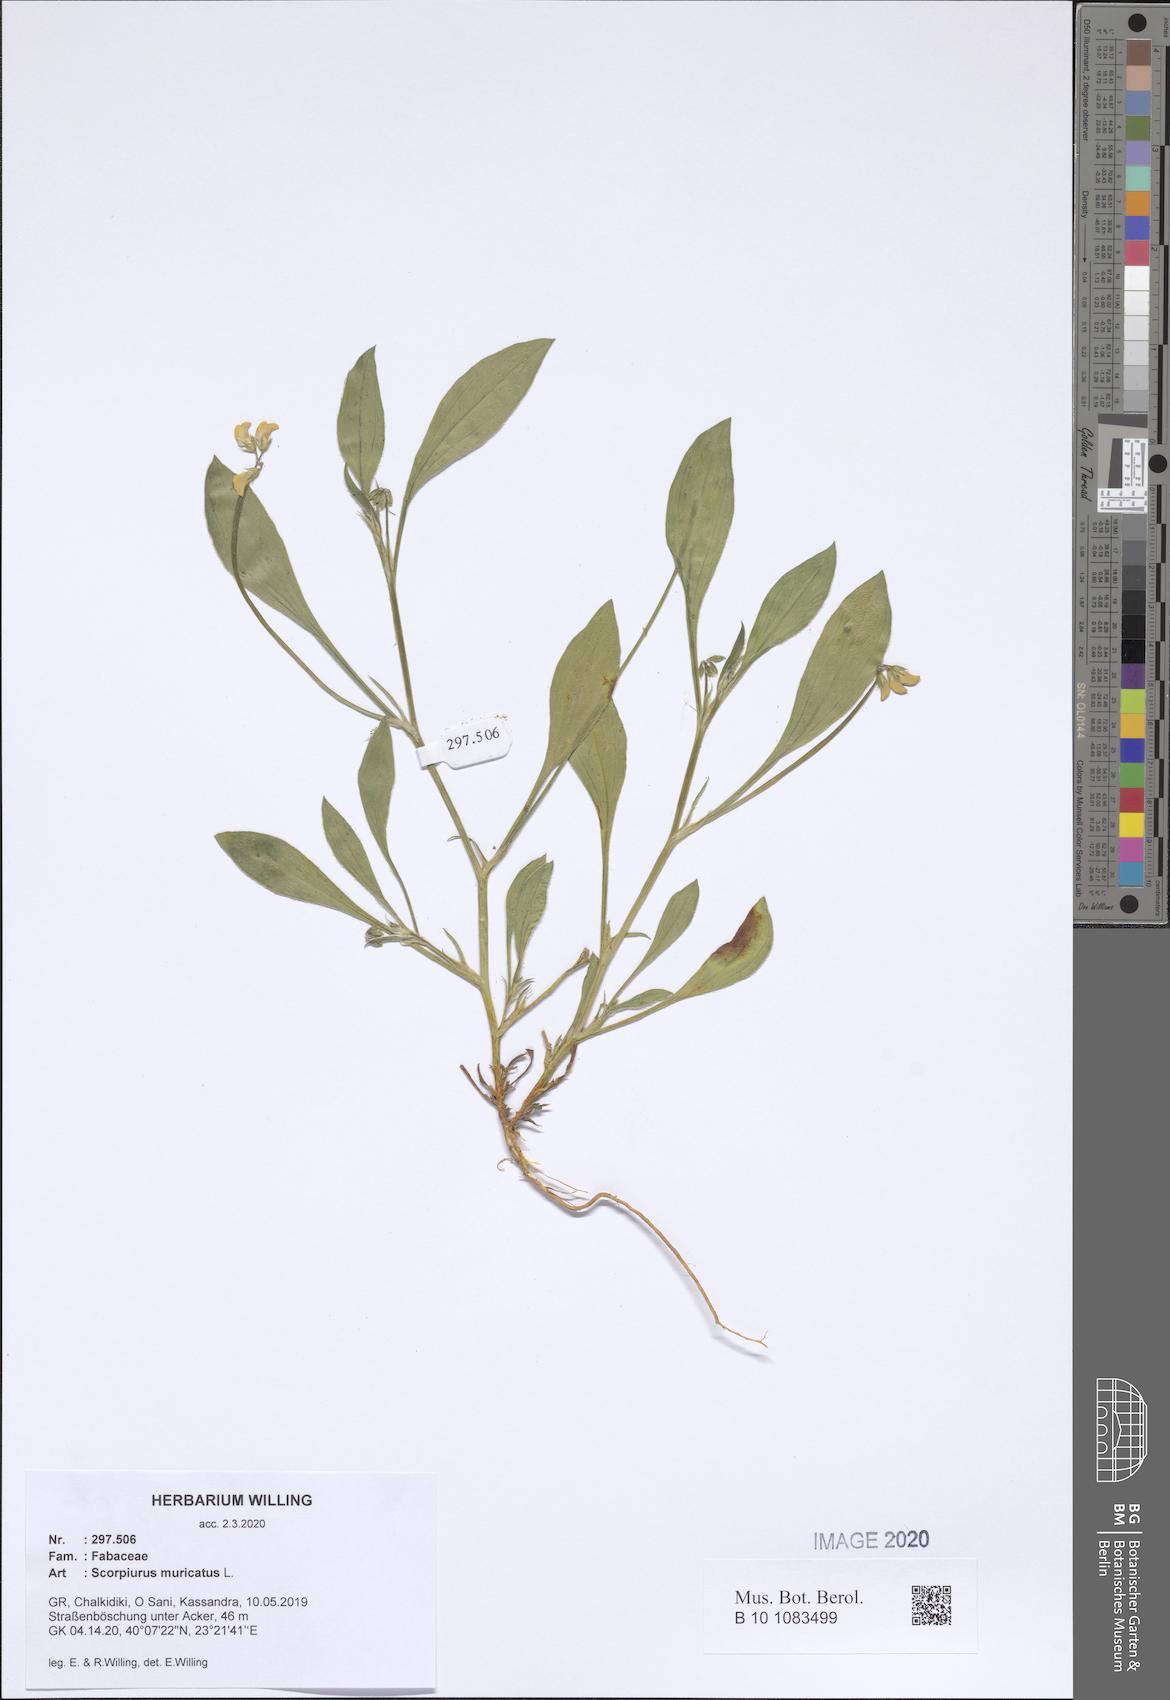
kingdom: Plantae
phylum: Tracheophyta
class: Magnoliopsida
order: Fabales
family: Fabaceae
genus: Scorpiurus
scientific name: Scorpiurus muricatus
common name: Caterpillar-plant
